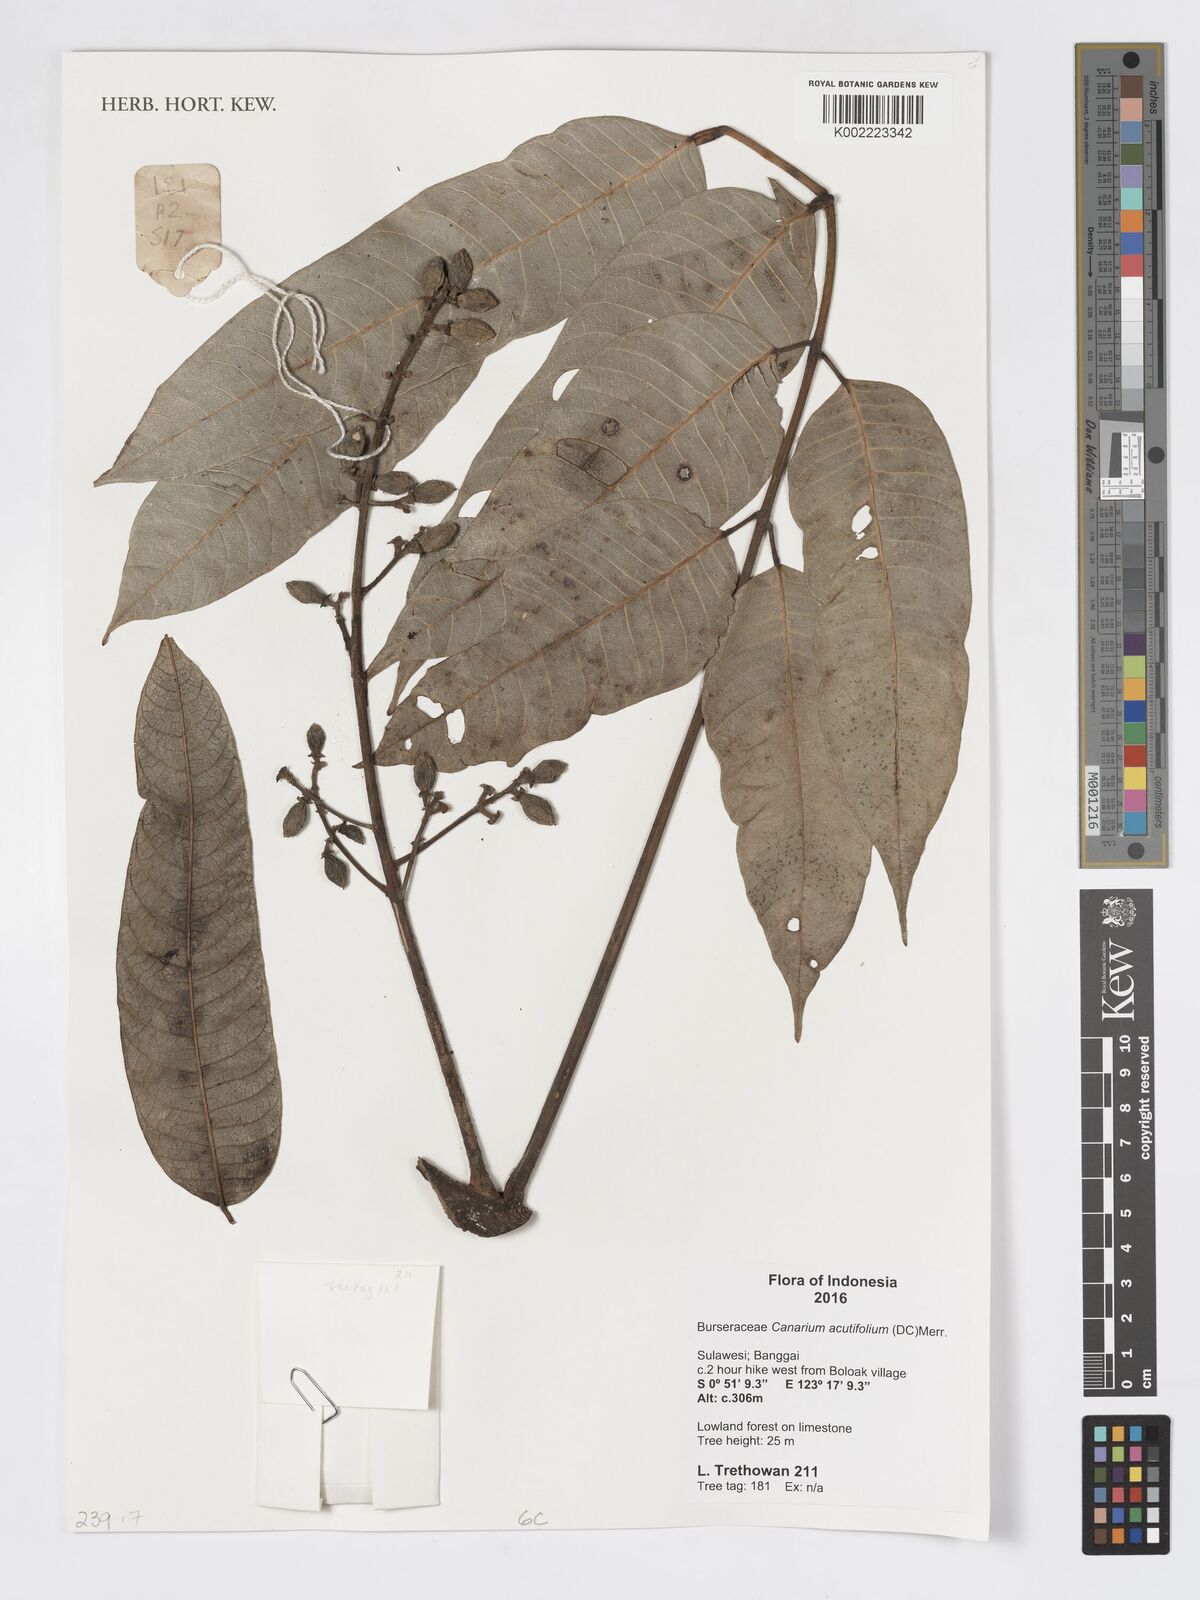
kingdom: Plantae
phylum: Tracheophyta
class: Magnoliopsida
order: Sapindales
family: Burseraceae
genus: Canarium
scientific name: Canarium acutifolium
